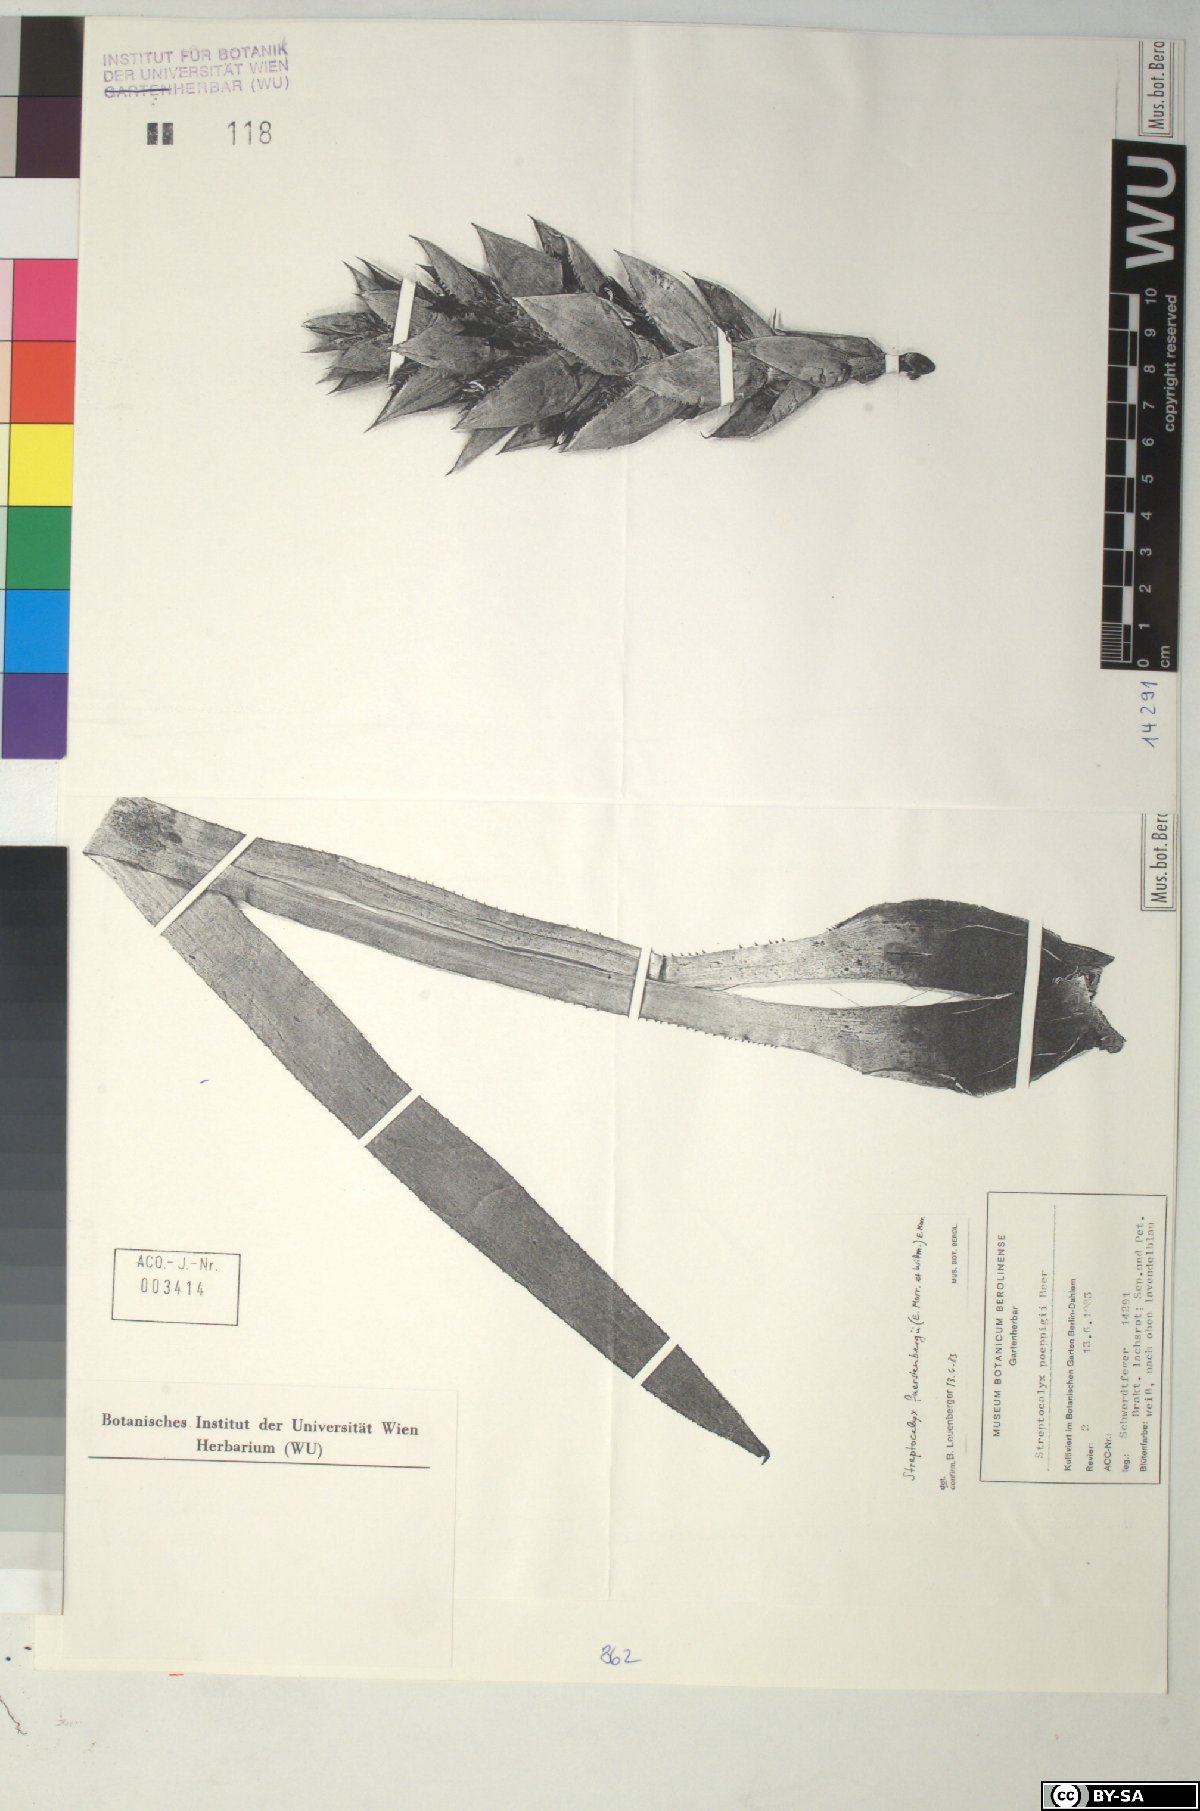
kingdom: Plantae
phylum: Tracheophyta
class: Liliopsida
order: Poales
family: Bromeliaceae
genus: Aechmea
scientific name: Aechmea
